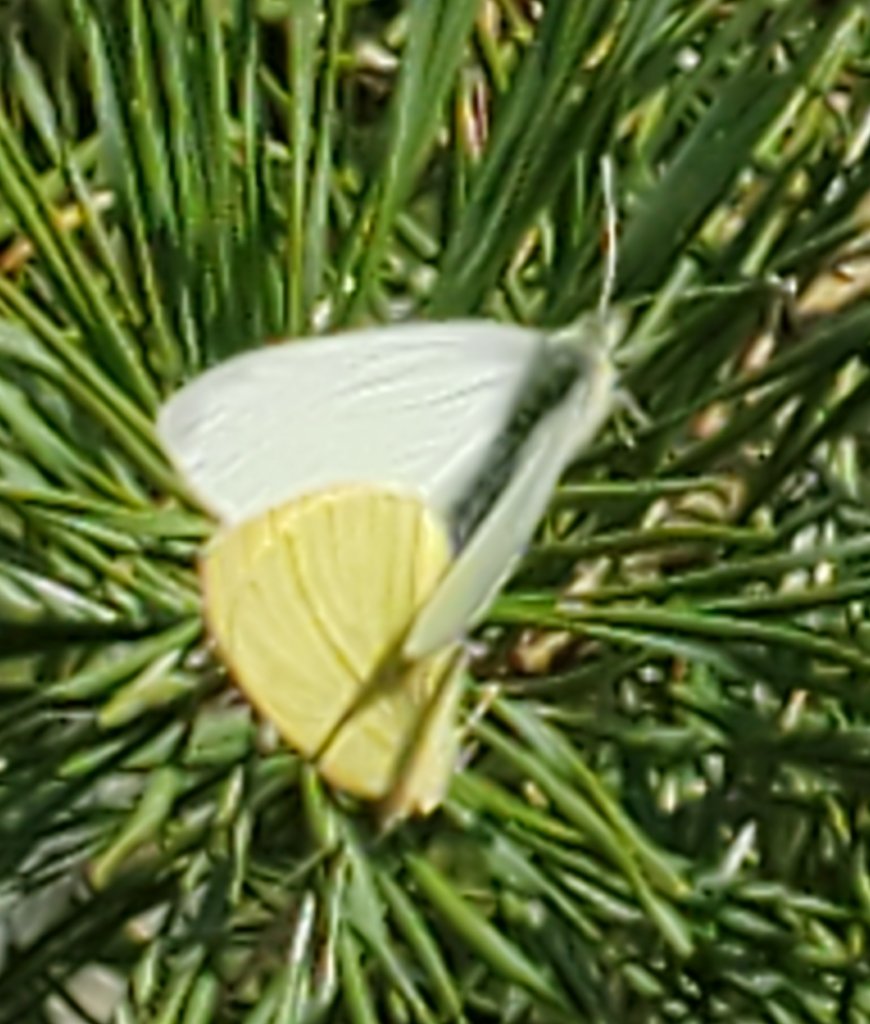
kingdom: Animalia
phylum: Arthropoda
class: Insecta
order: Lepidoptera
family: Pieridae
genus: Pieris
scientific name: Pieris rapae
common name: Cabbage White
